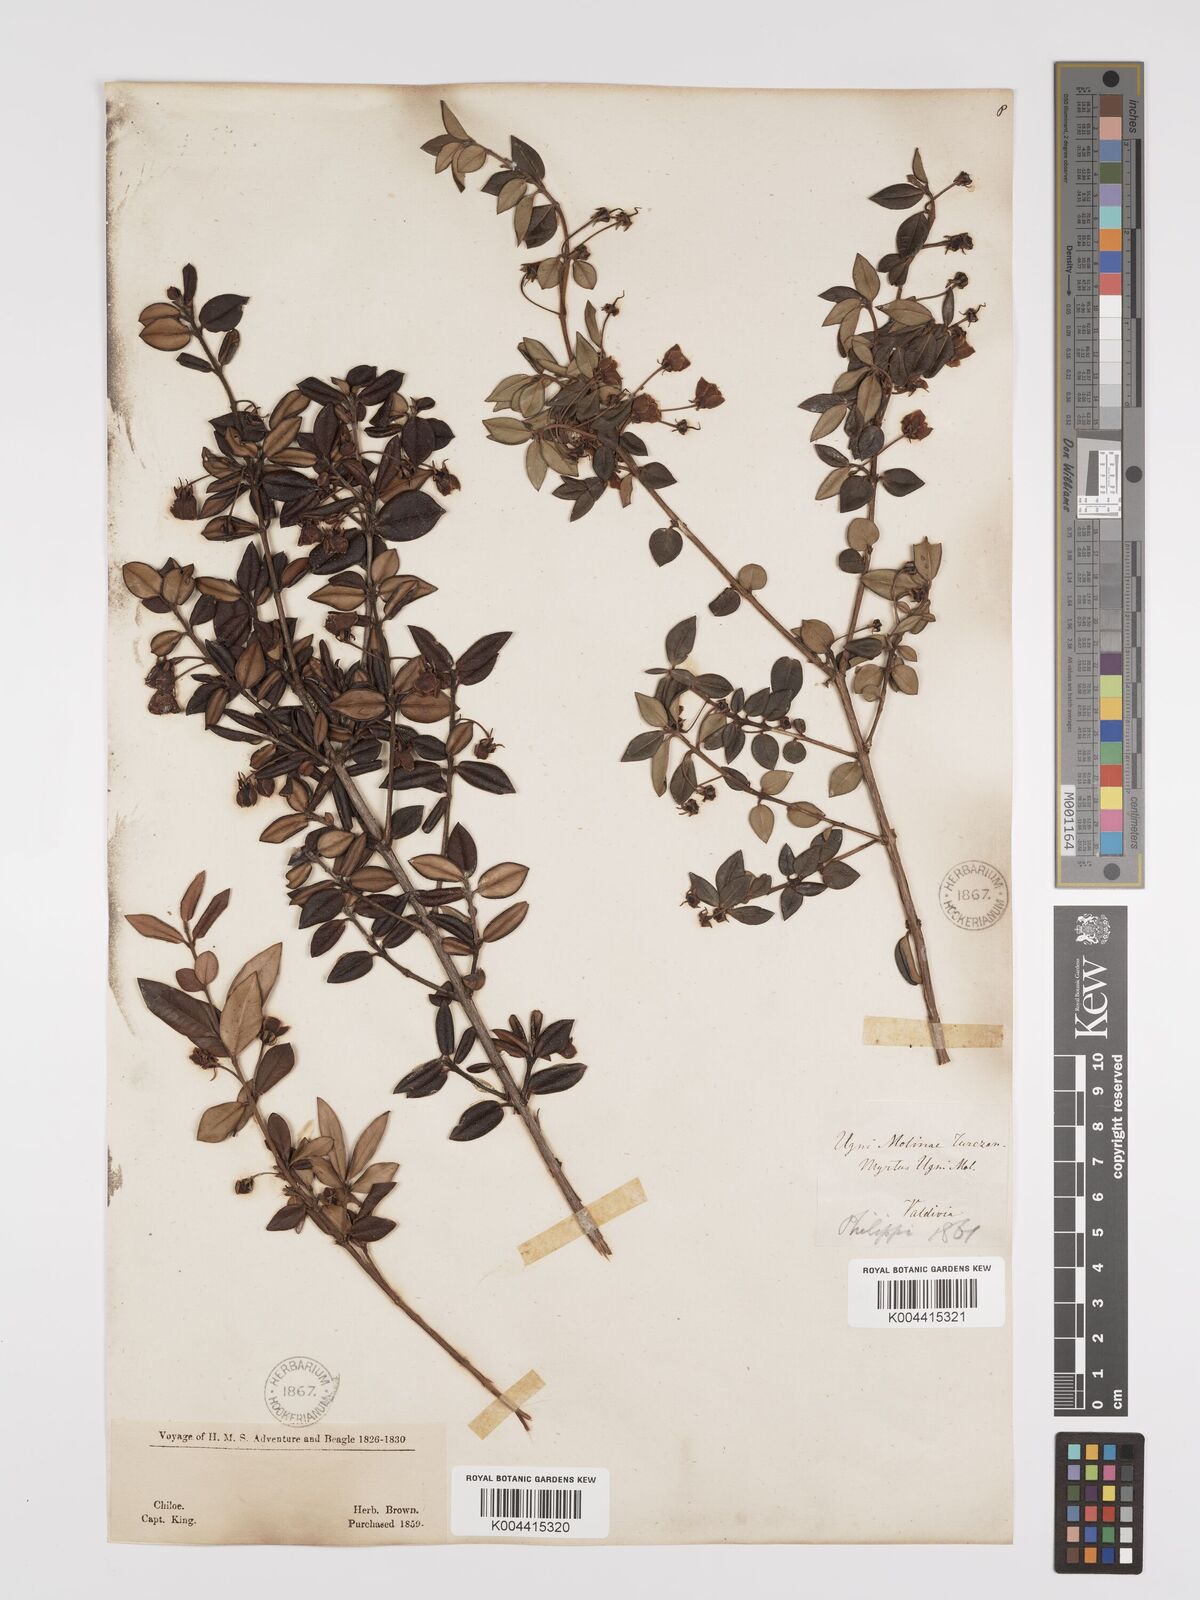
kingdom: Plantae
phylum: Tracheophyta
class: Magnoliopsida
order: Myrtales
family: Myrtaceae
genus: Ugni
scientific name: Ugni molinae
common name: Chilean-guava
